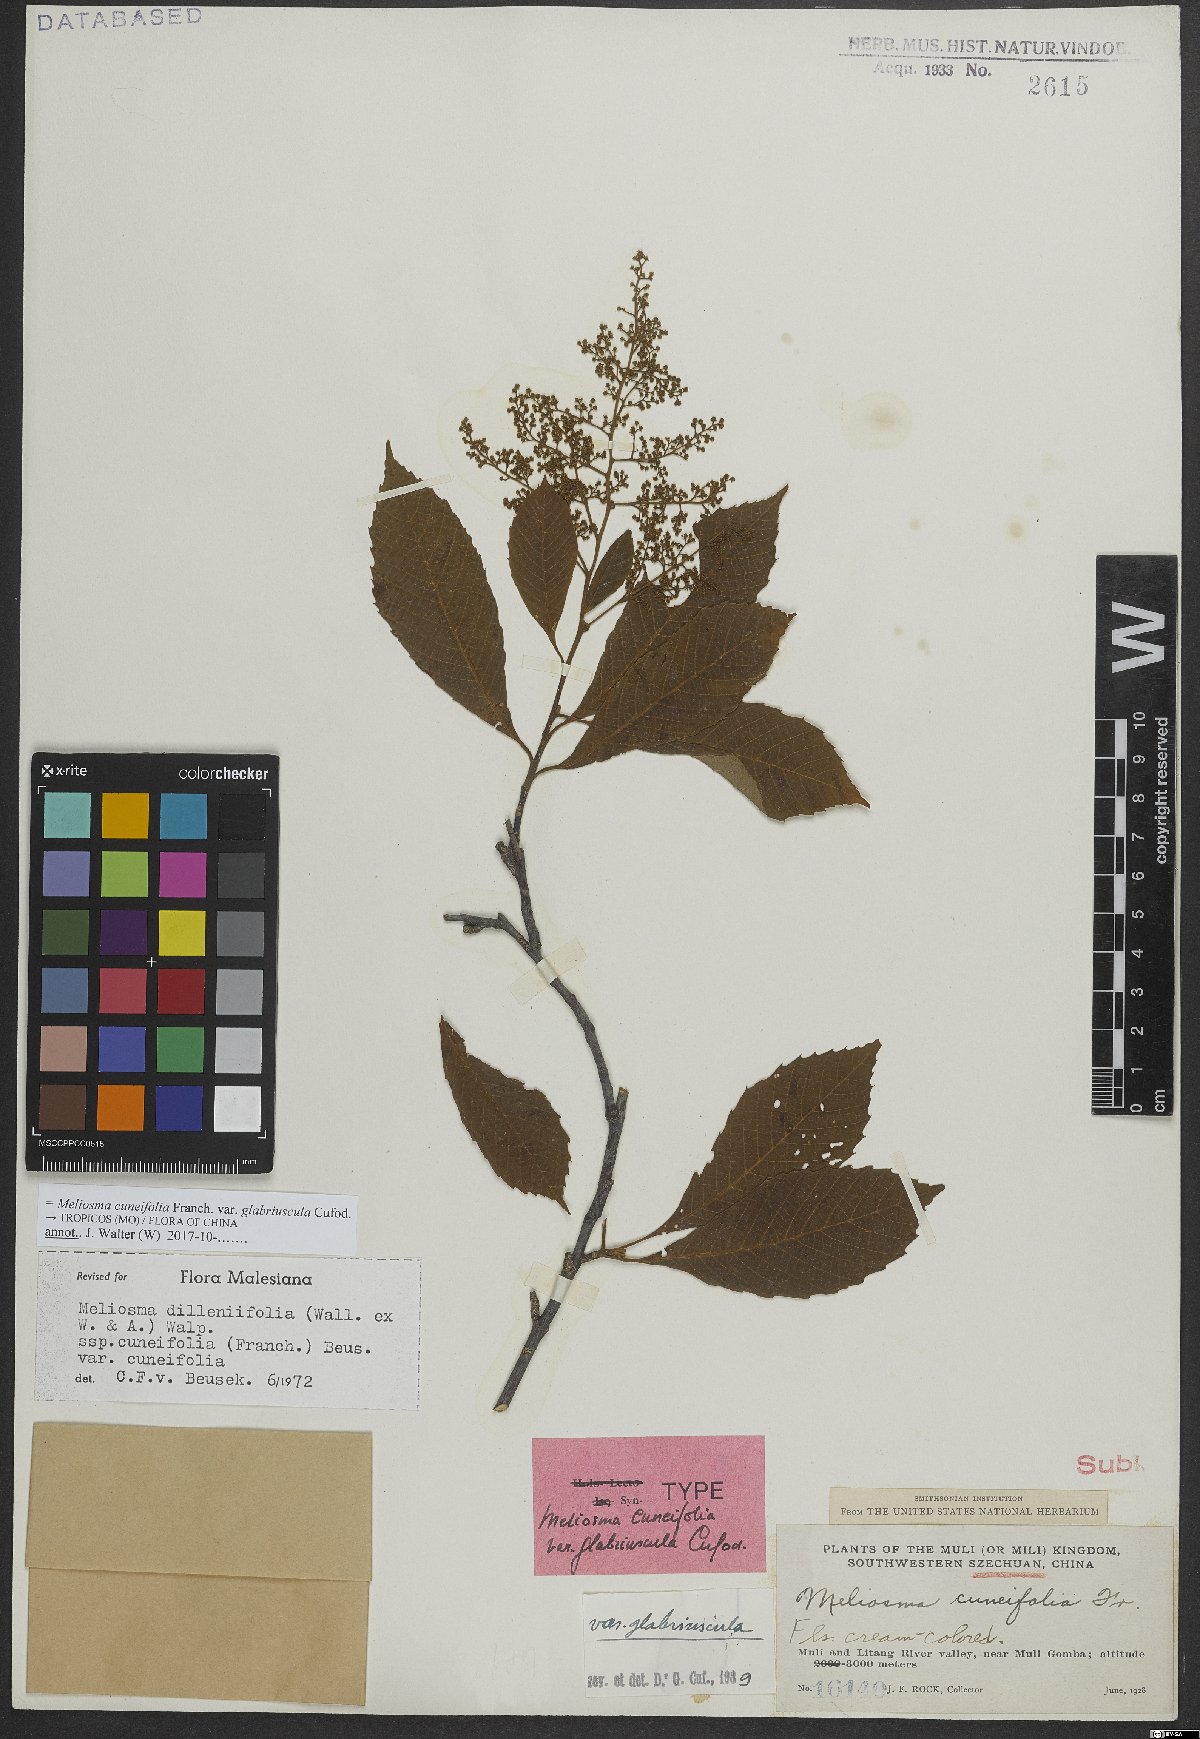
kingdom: Plantae
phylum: Tracheophyta
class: Magnoliopsida
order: Proteales
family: Sabiaceae
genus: Meliosma
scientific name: Meliosma cuneifolia
